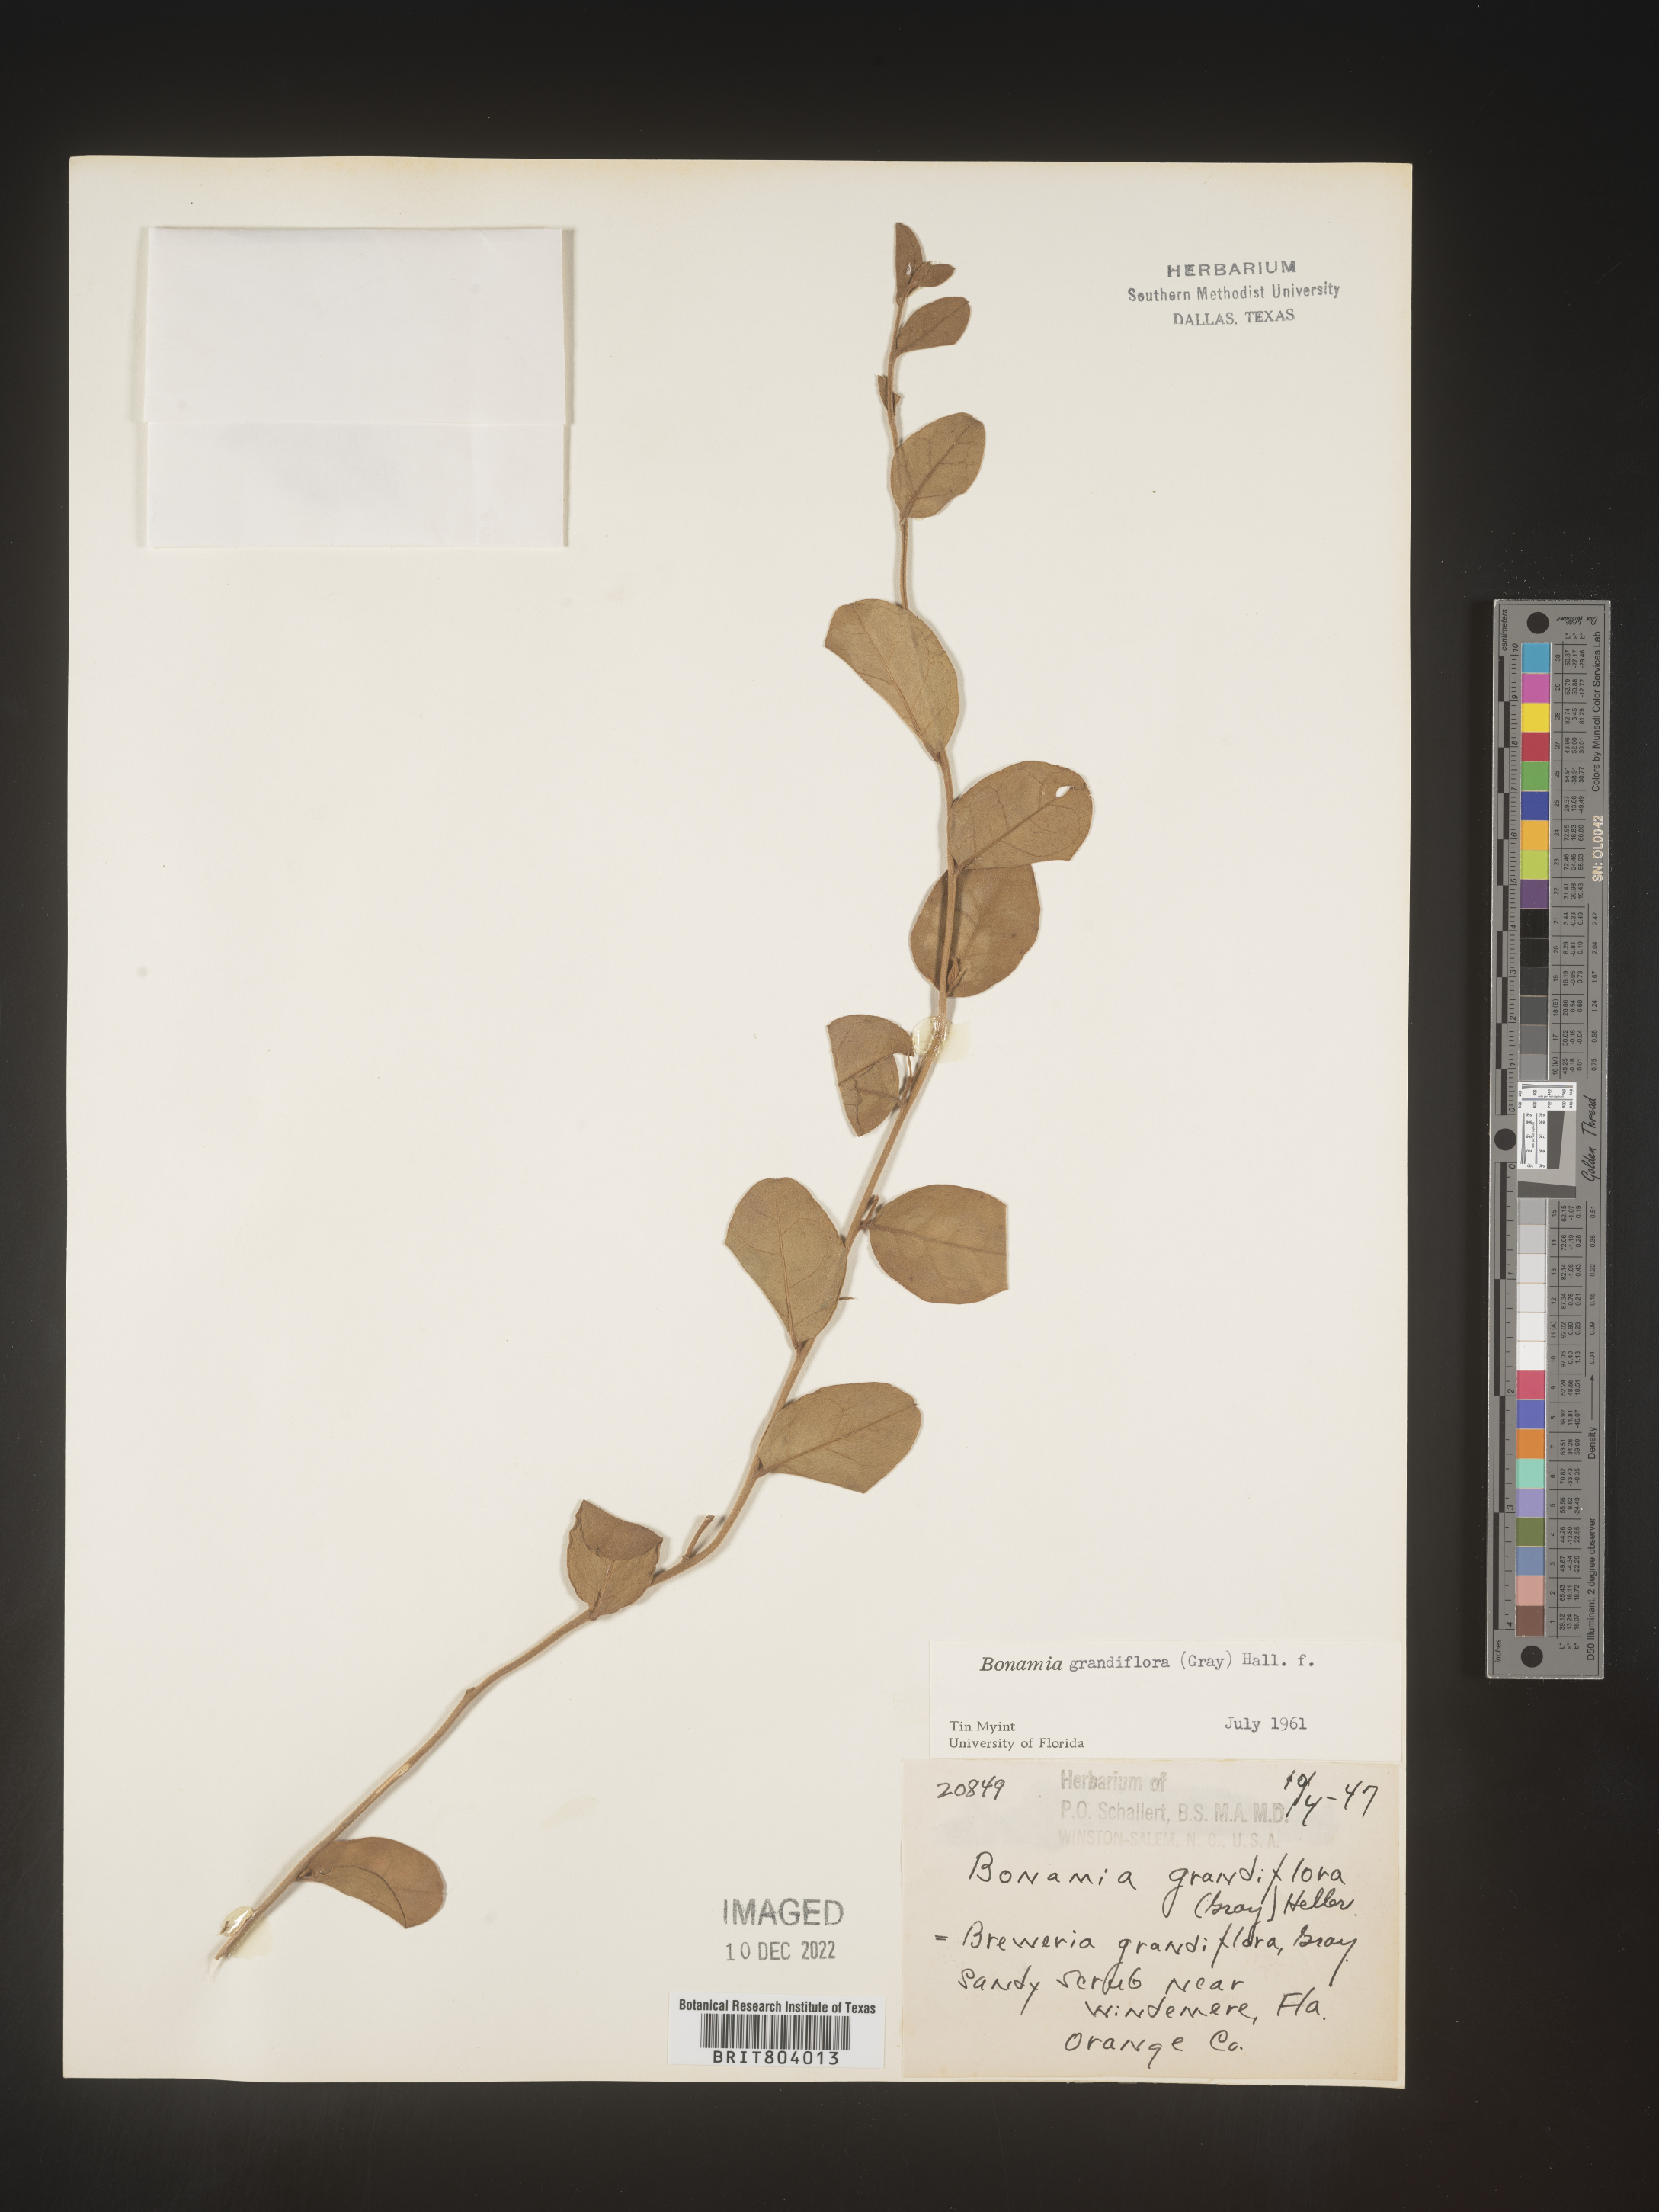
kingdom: Plantae
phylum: Tracheophyta
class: Magnoliopsida
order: Solanales
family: Convolvulaceae
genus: Bonamia
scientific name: Bonamia
